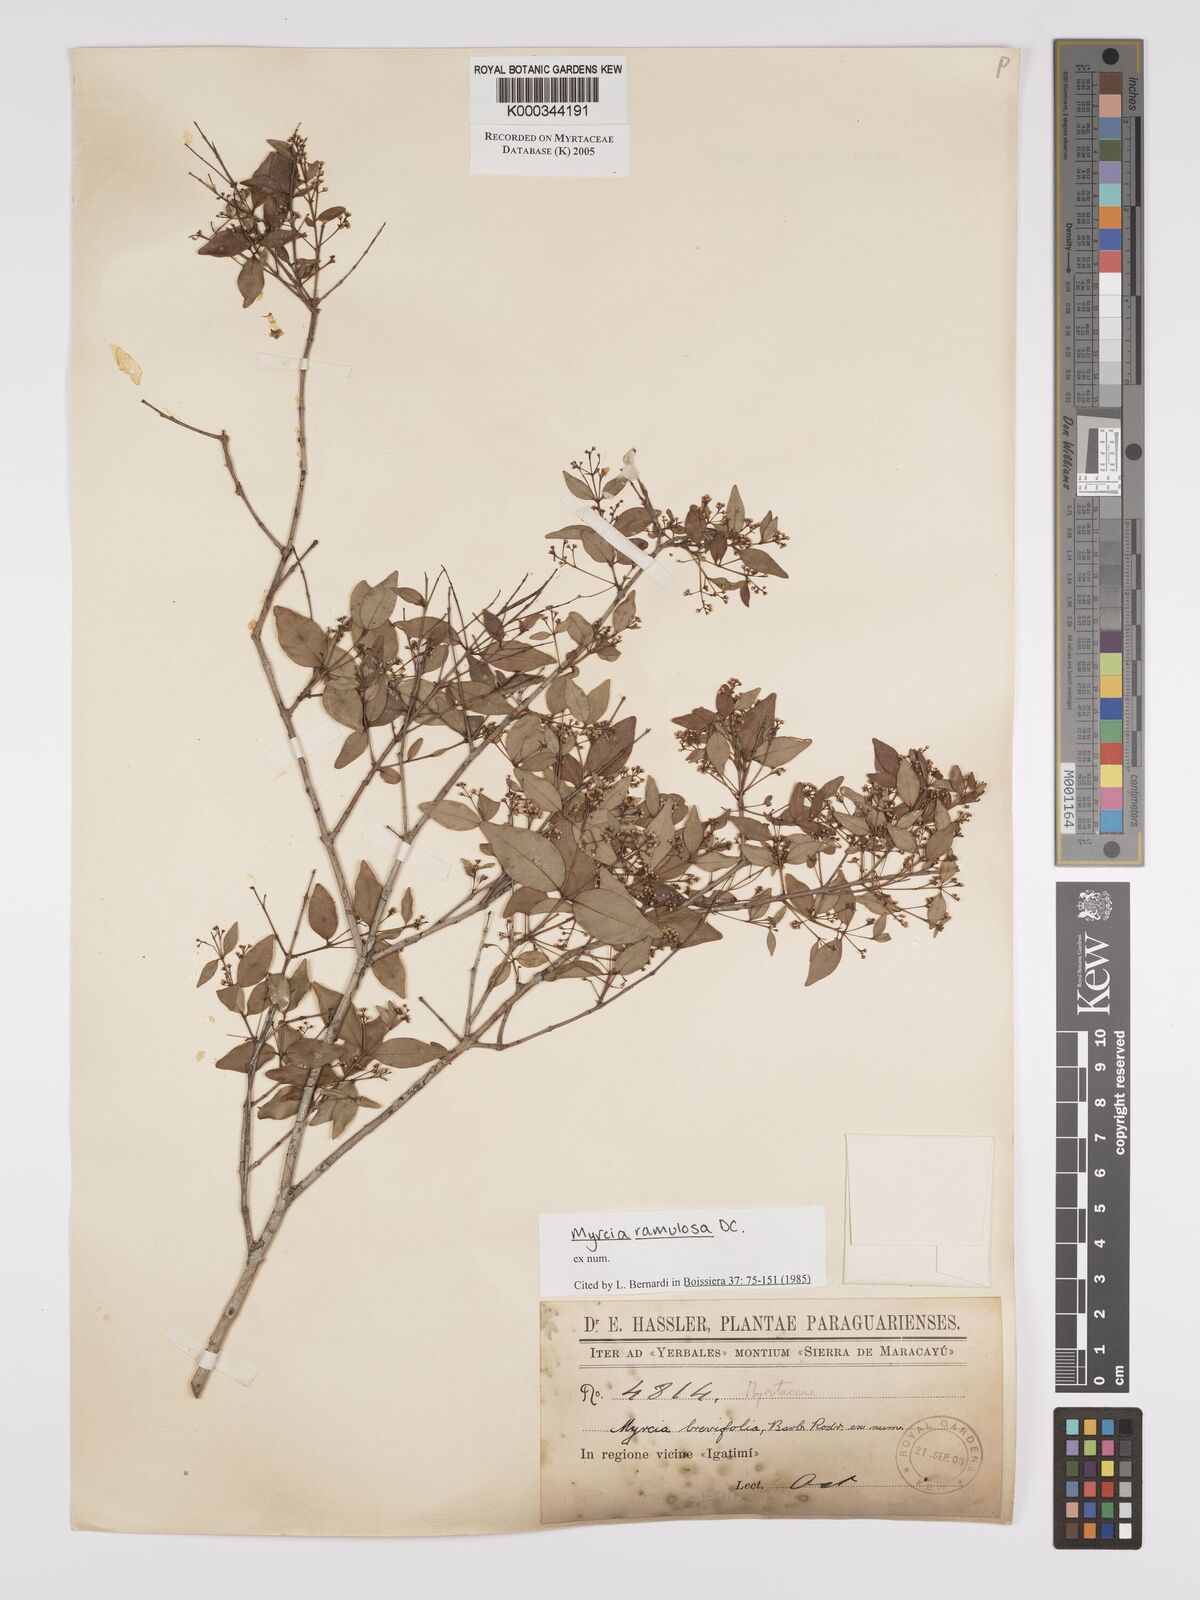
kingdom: Plantae
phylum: Tracheophyta
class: Magnoliopsida
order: Myrtales
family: Myrtaceae
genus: Myrcia
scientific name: Myrcia selloi
